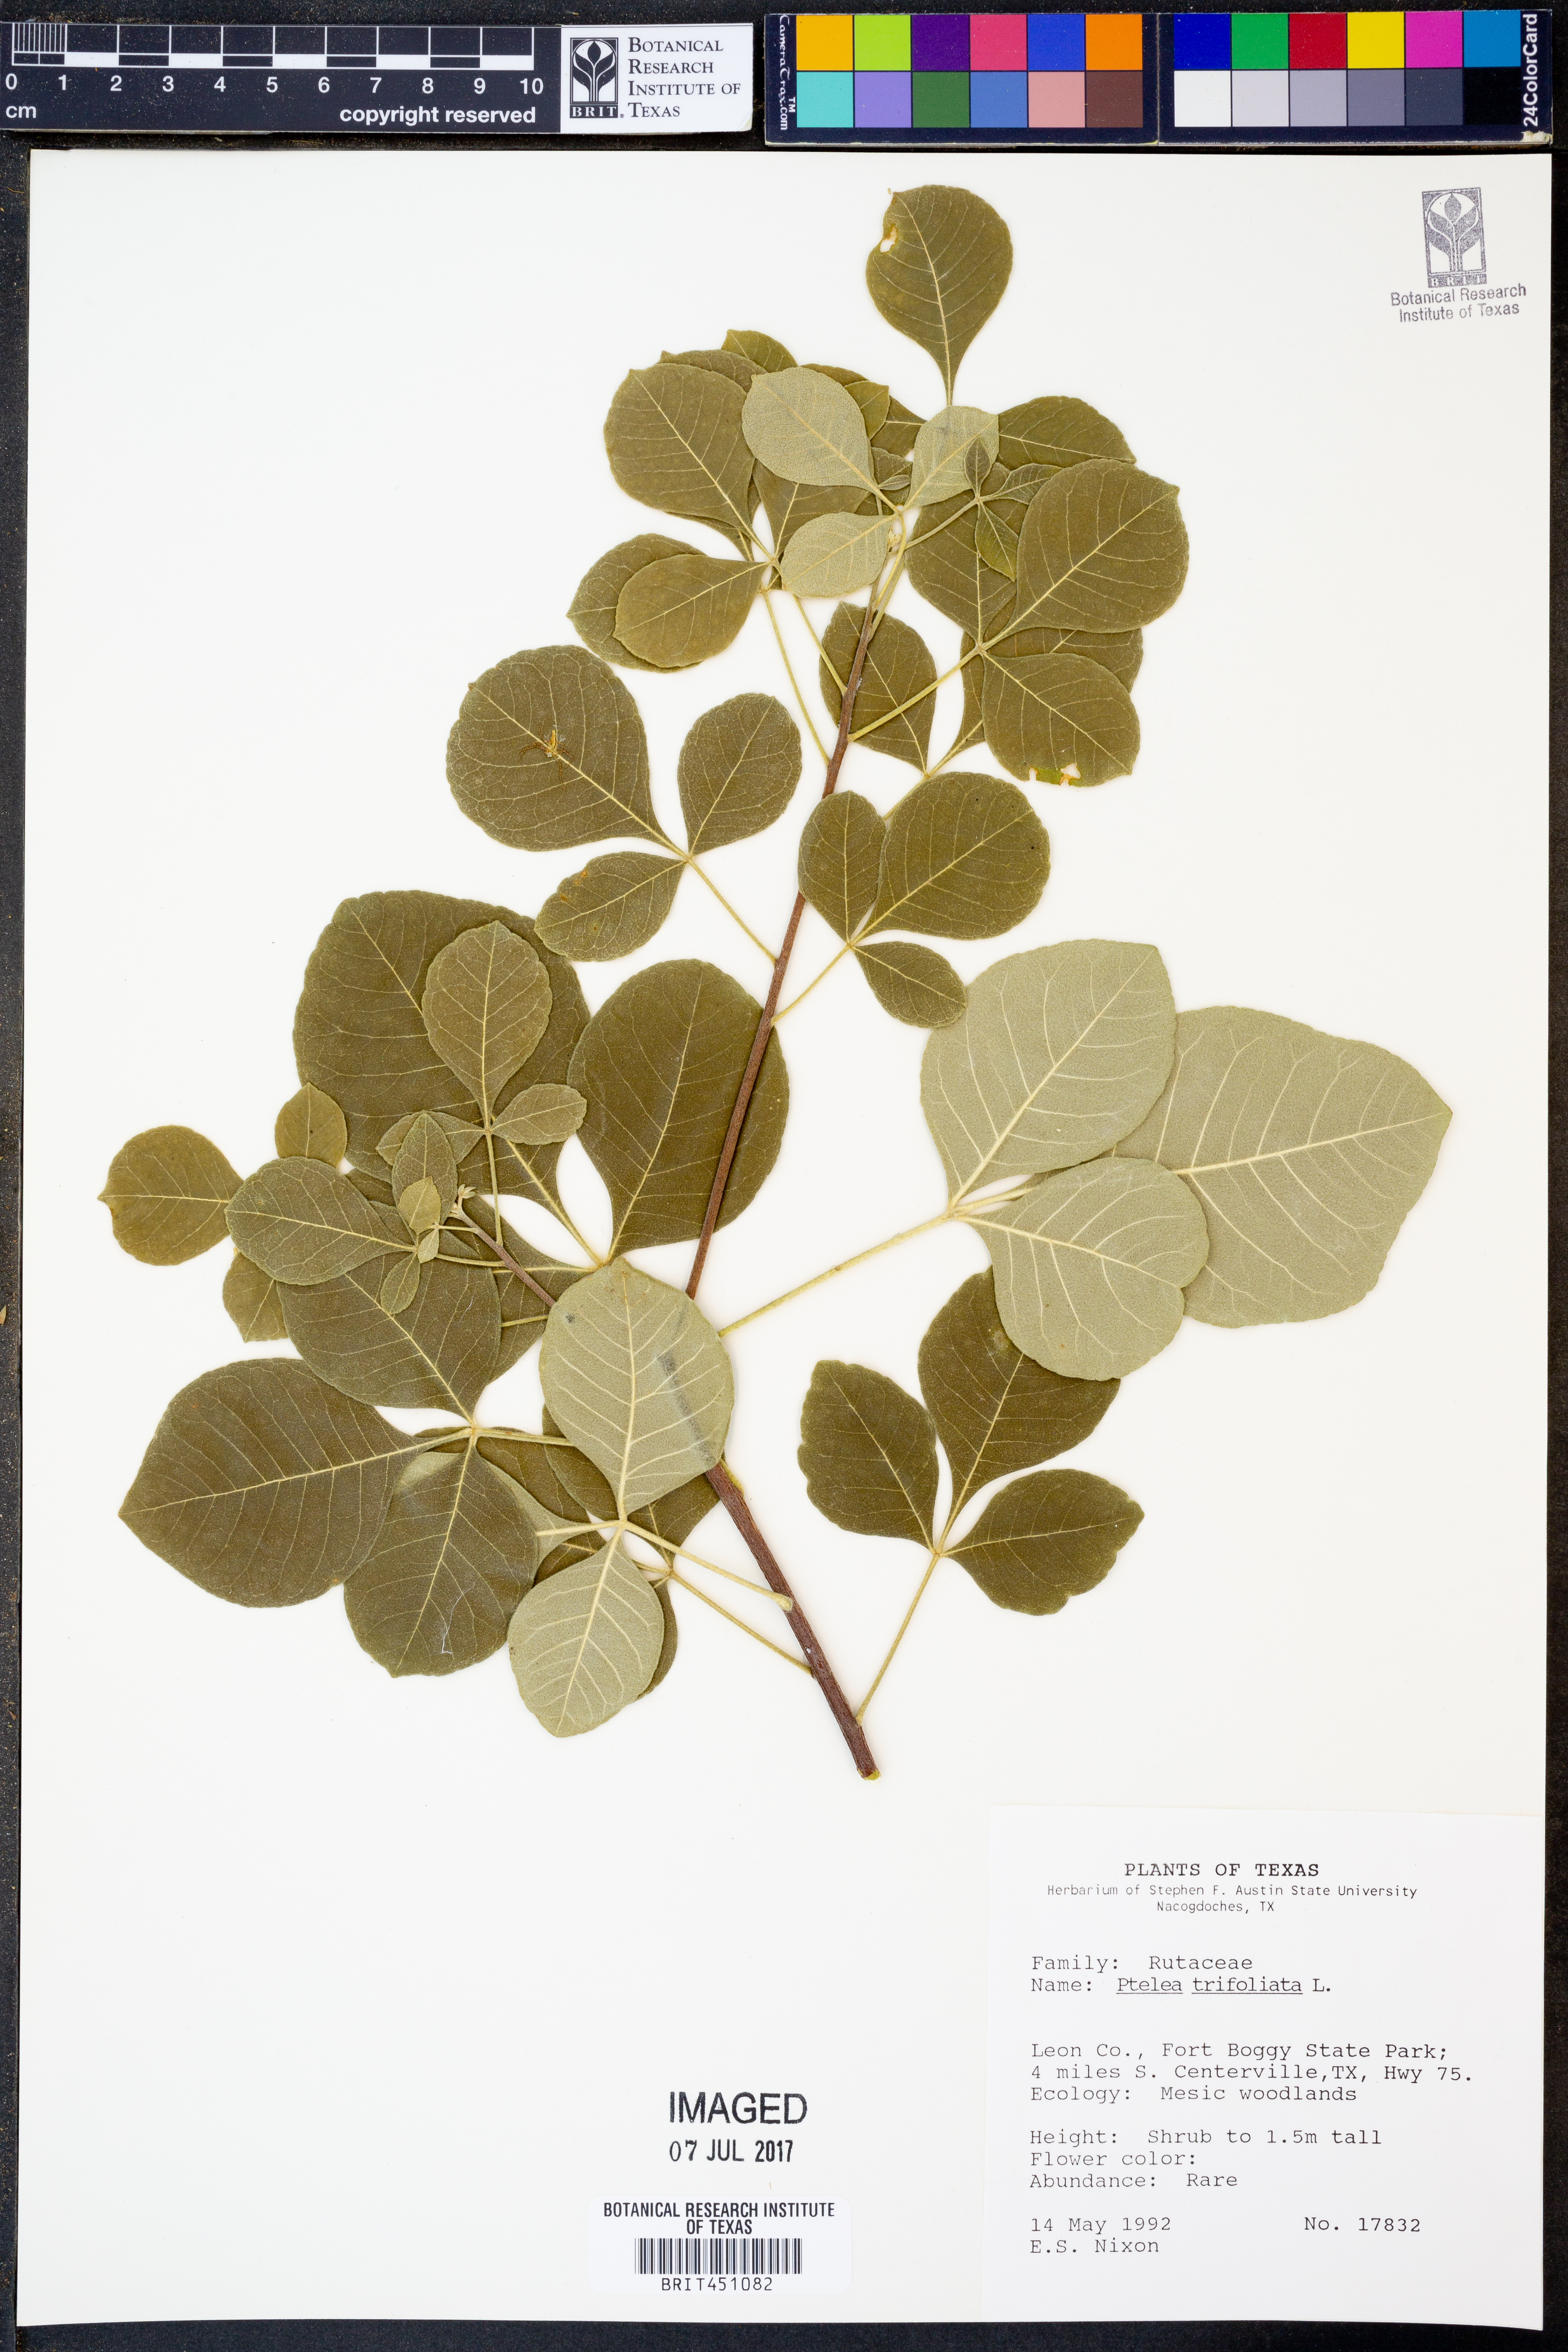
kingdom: Plantae
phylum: Tracheophyta
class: Magnoliopsida
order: Sapindales
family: Rutaceae
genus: Ptelea
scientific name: Ptelea trifoliata
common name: Common hop-tree
